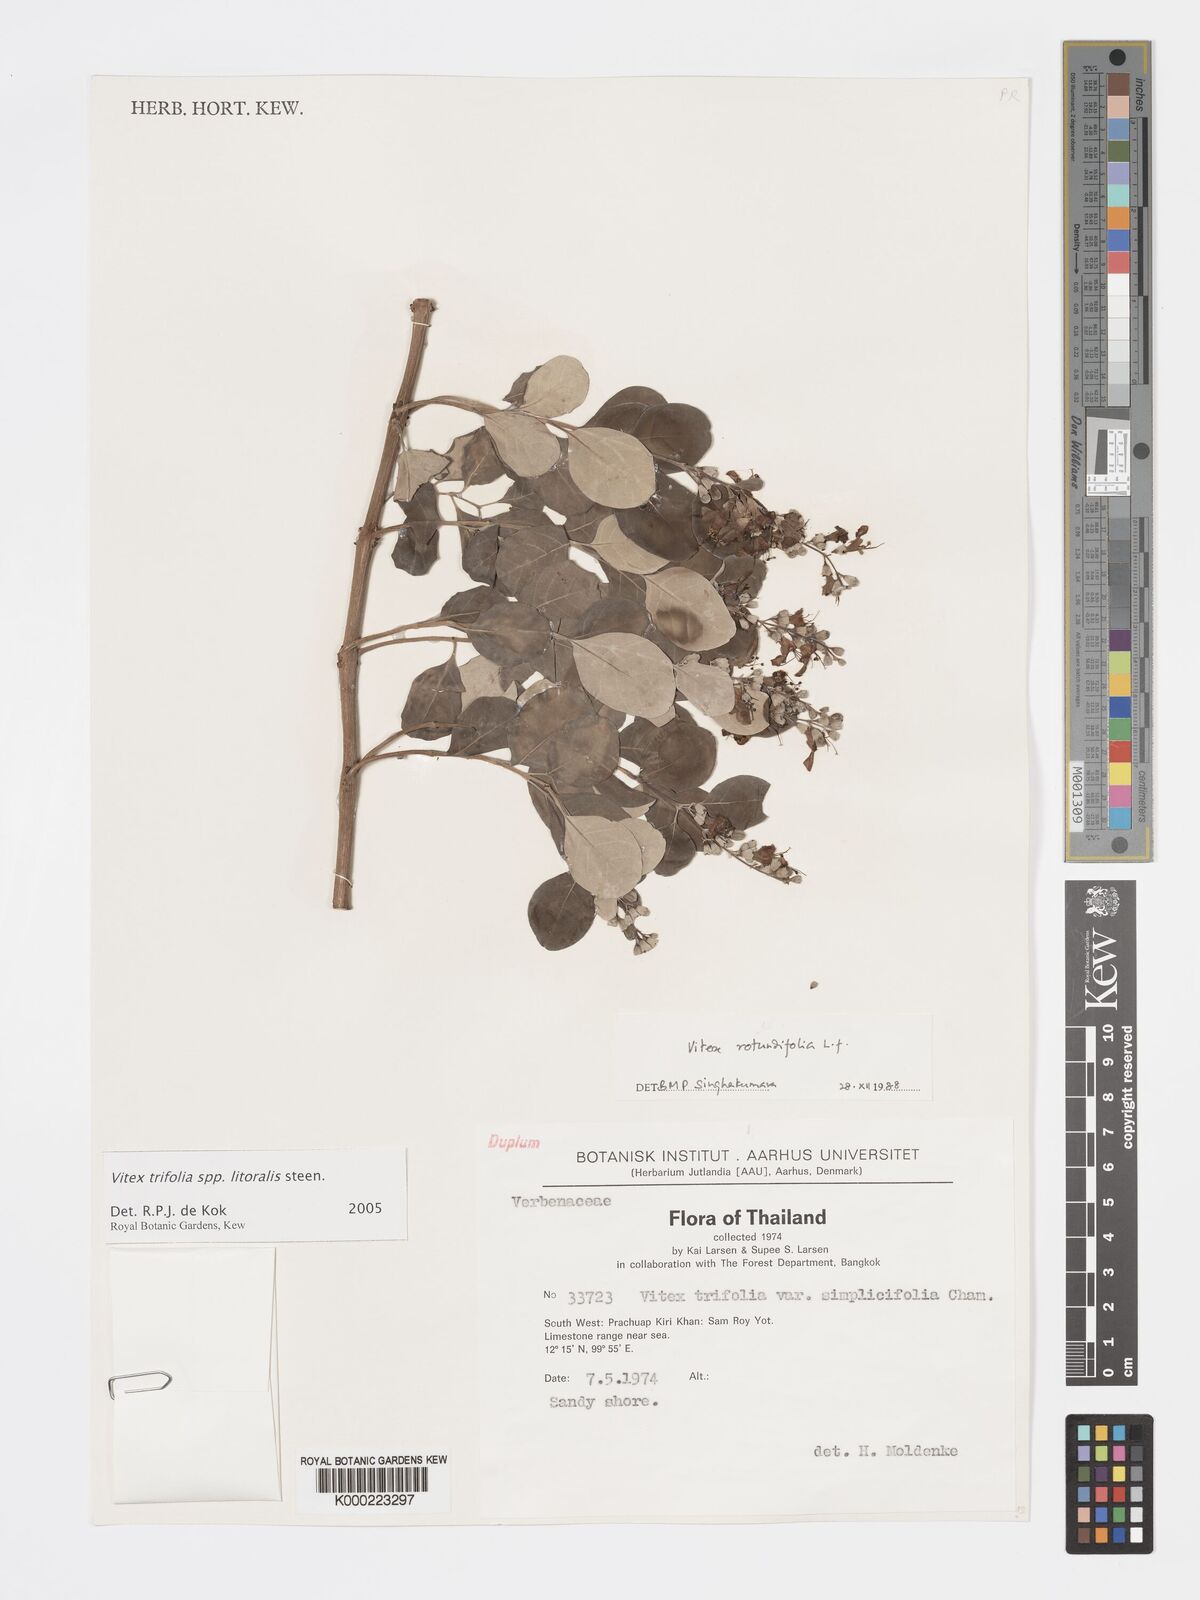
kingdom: Plantae
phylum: Tracheophyta
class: Magnoliopsida
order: Lamiales
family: Lamiaceae
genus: Vitex
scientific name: Vitex rotundifolia
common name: Beach vitex
